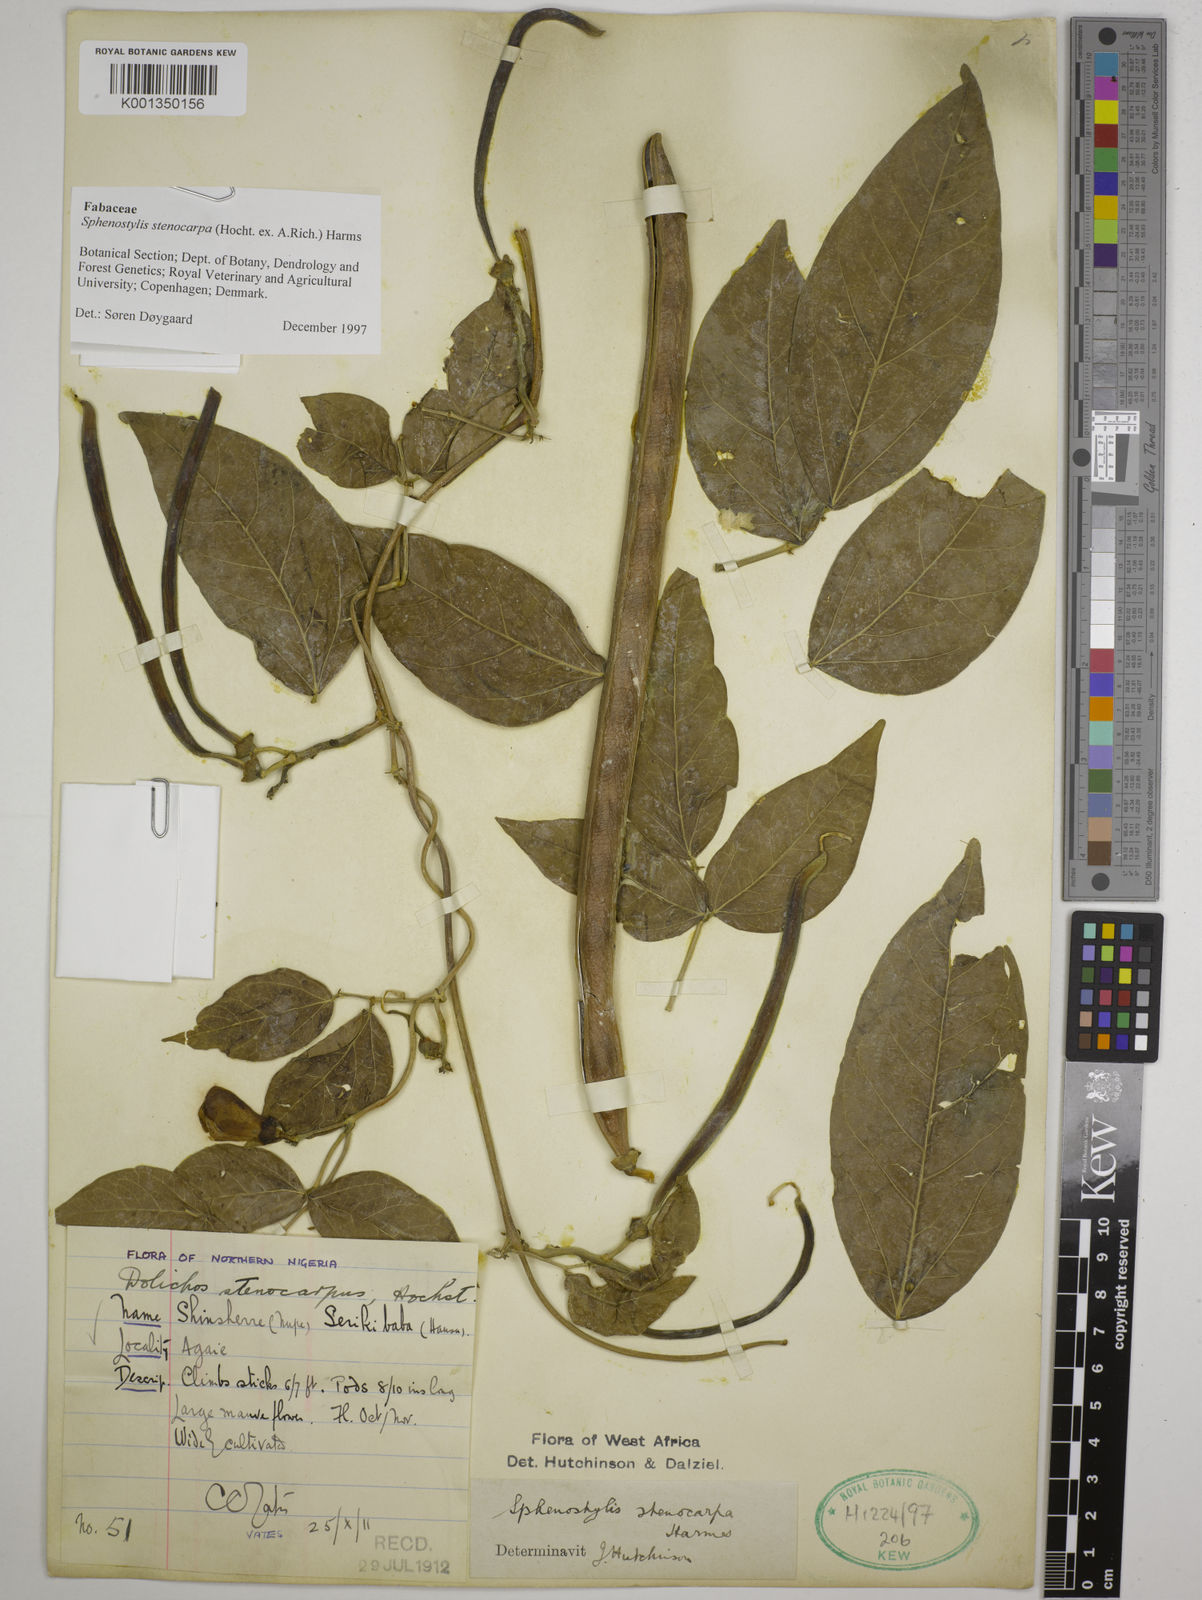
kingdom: Plantae
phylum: Tracheophyta
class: Magnoliopsida
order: Fabales
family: Fabaceae
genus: Sphenostylis
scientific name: Sphenostylis stenocarpa
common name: Yam-pea
